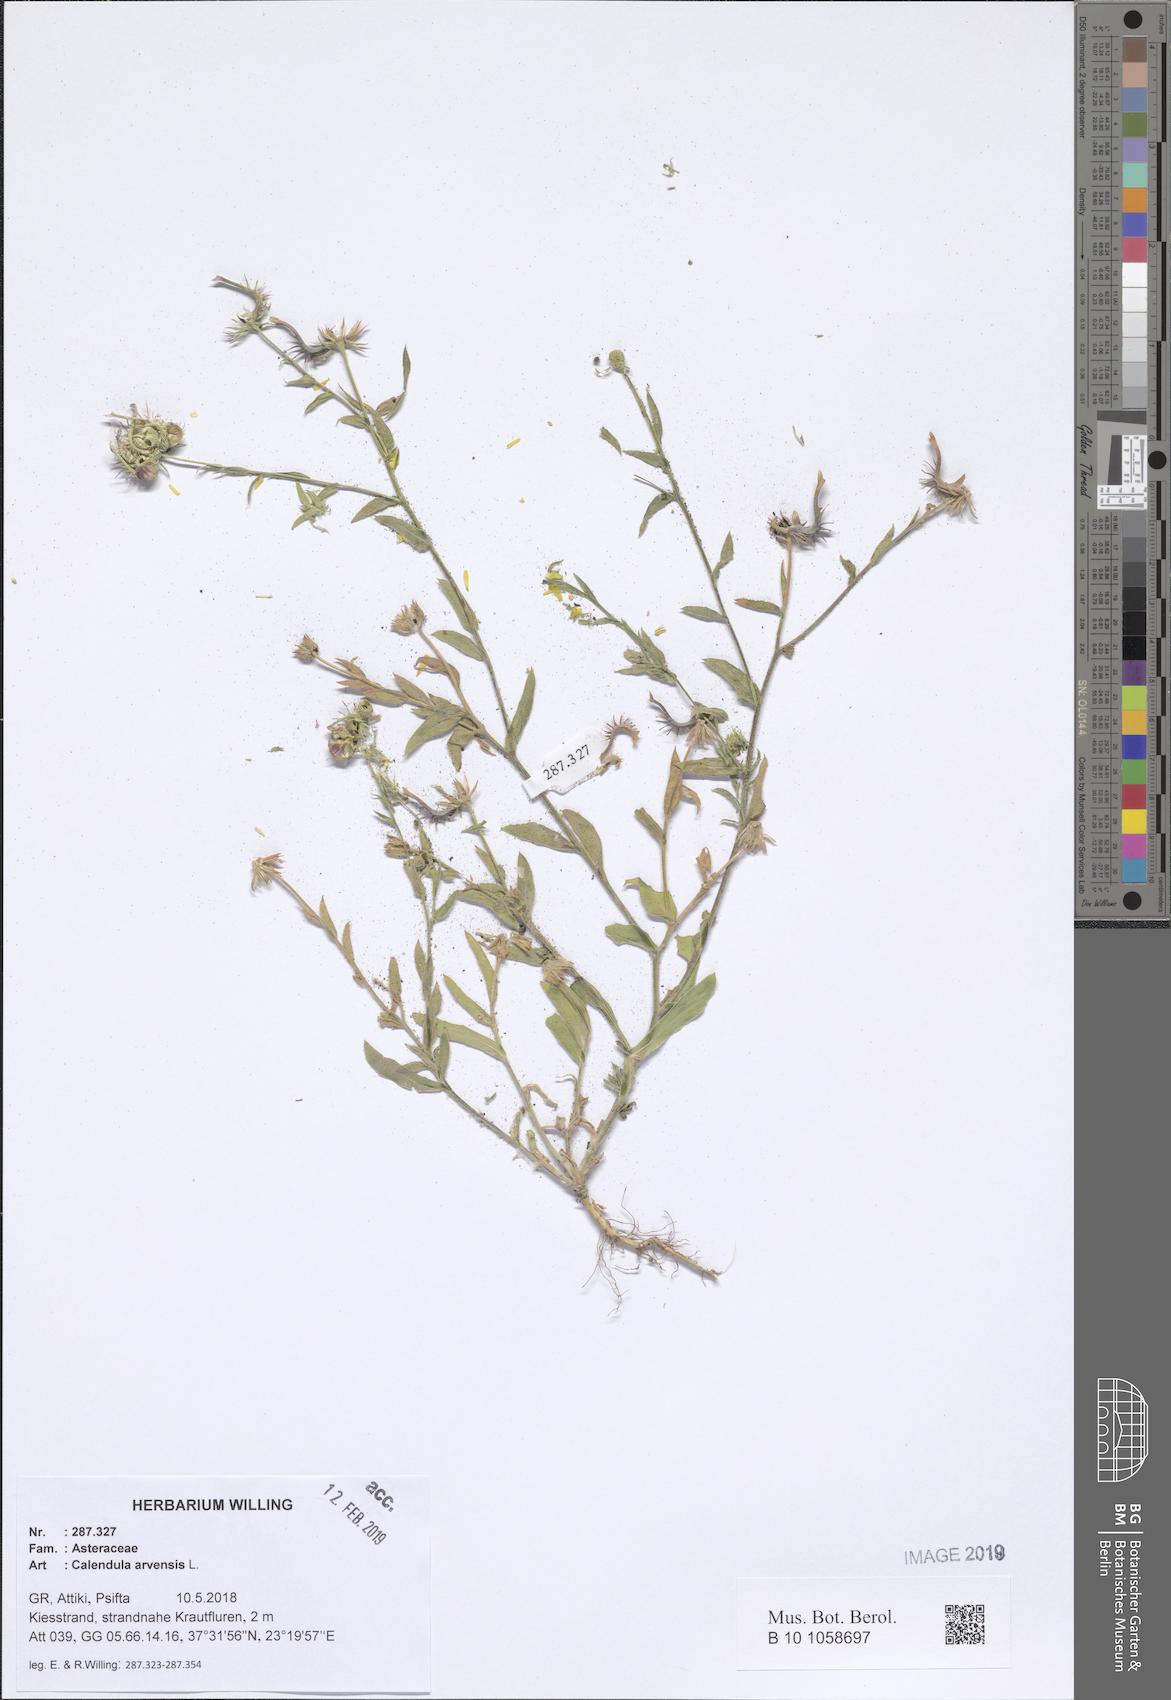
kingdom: Plantae
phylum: Tracheophyta
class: Magnoliopsida
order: Asterales
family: Asteraceae
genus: Calendula
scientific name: Calendula arvensis
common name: Field marigold
